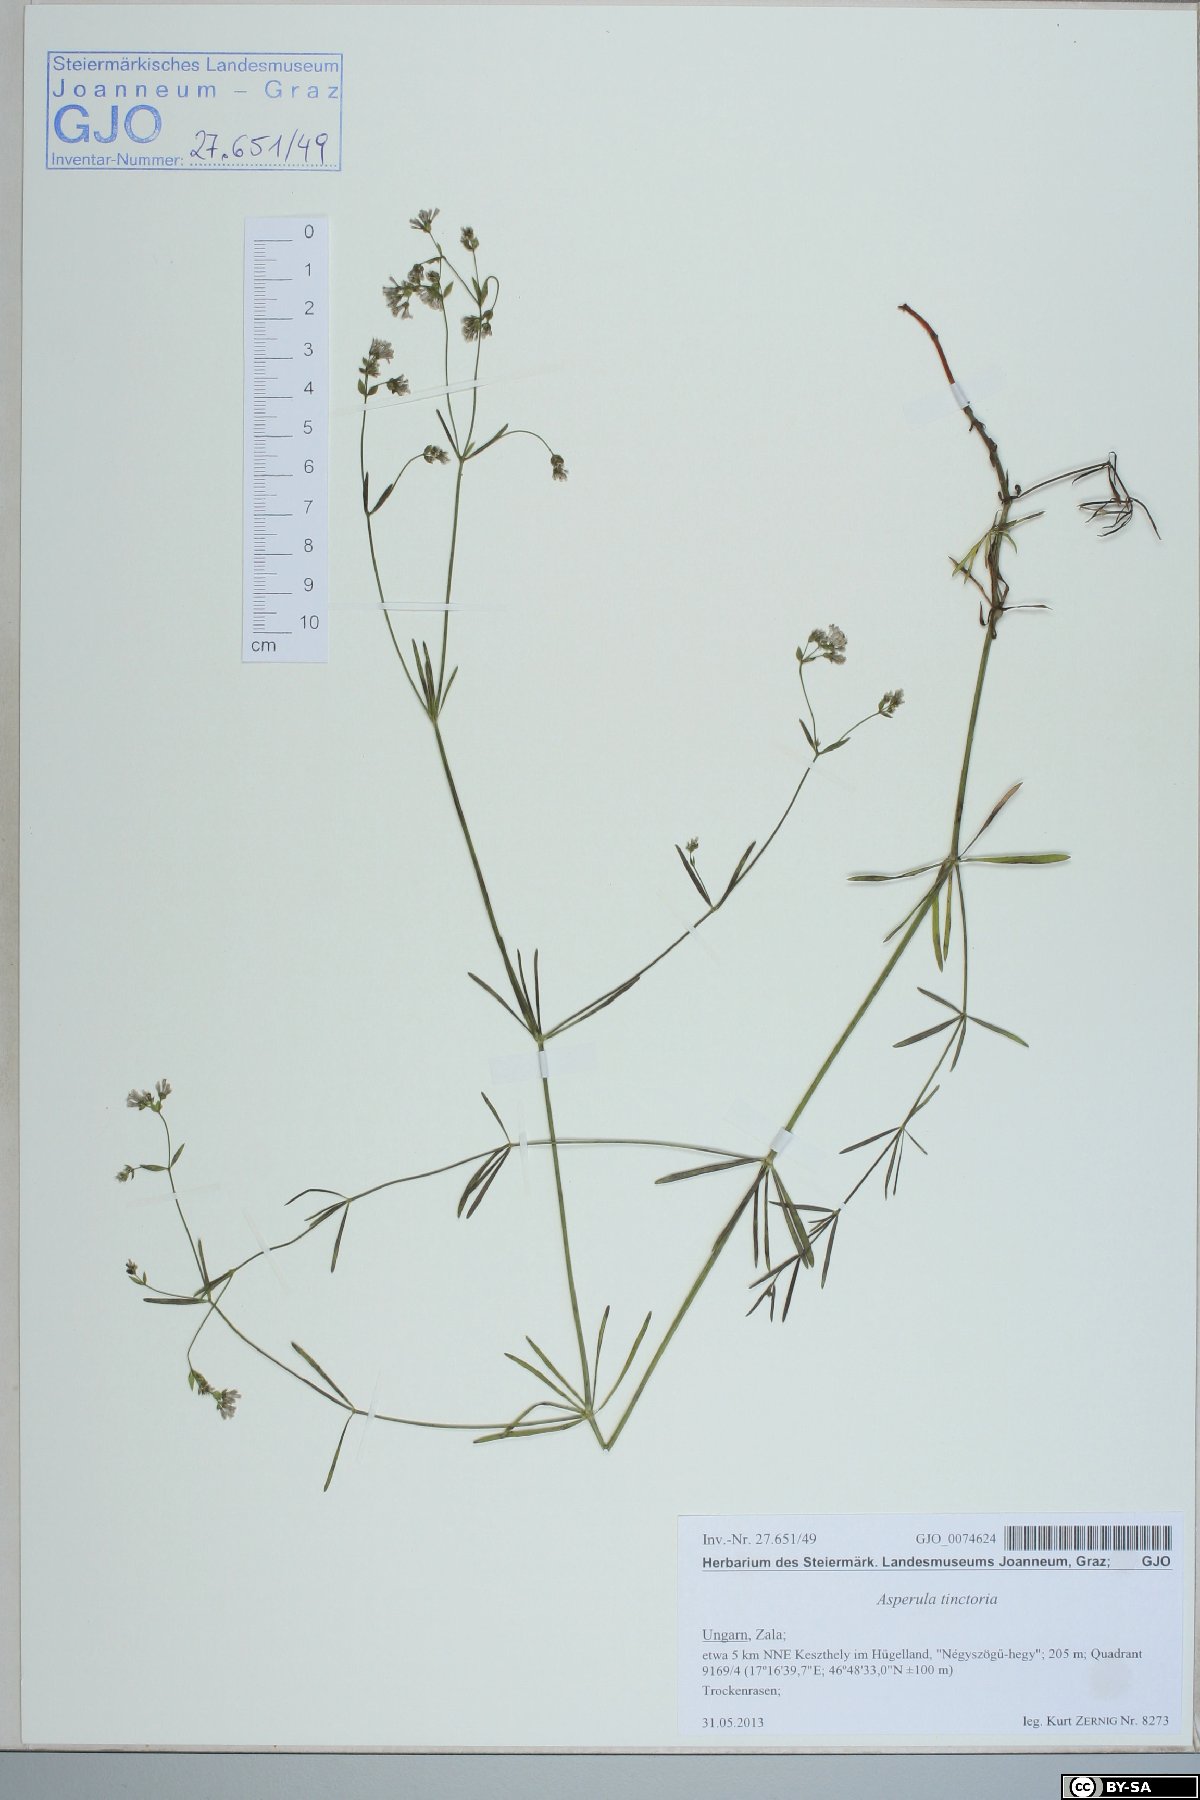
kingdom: Plantae
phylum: Tracheophyta
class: Magnoliopsida
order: Gentianales
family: Rubiaceae
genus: Asperula
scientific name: Asperula tinctoria
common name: Dyer's woodruff
